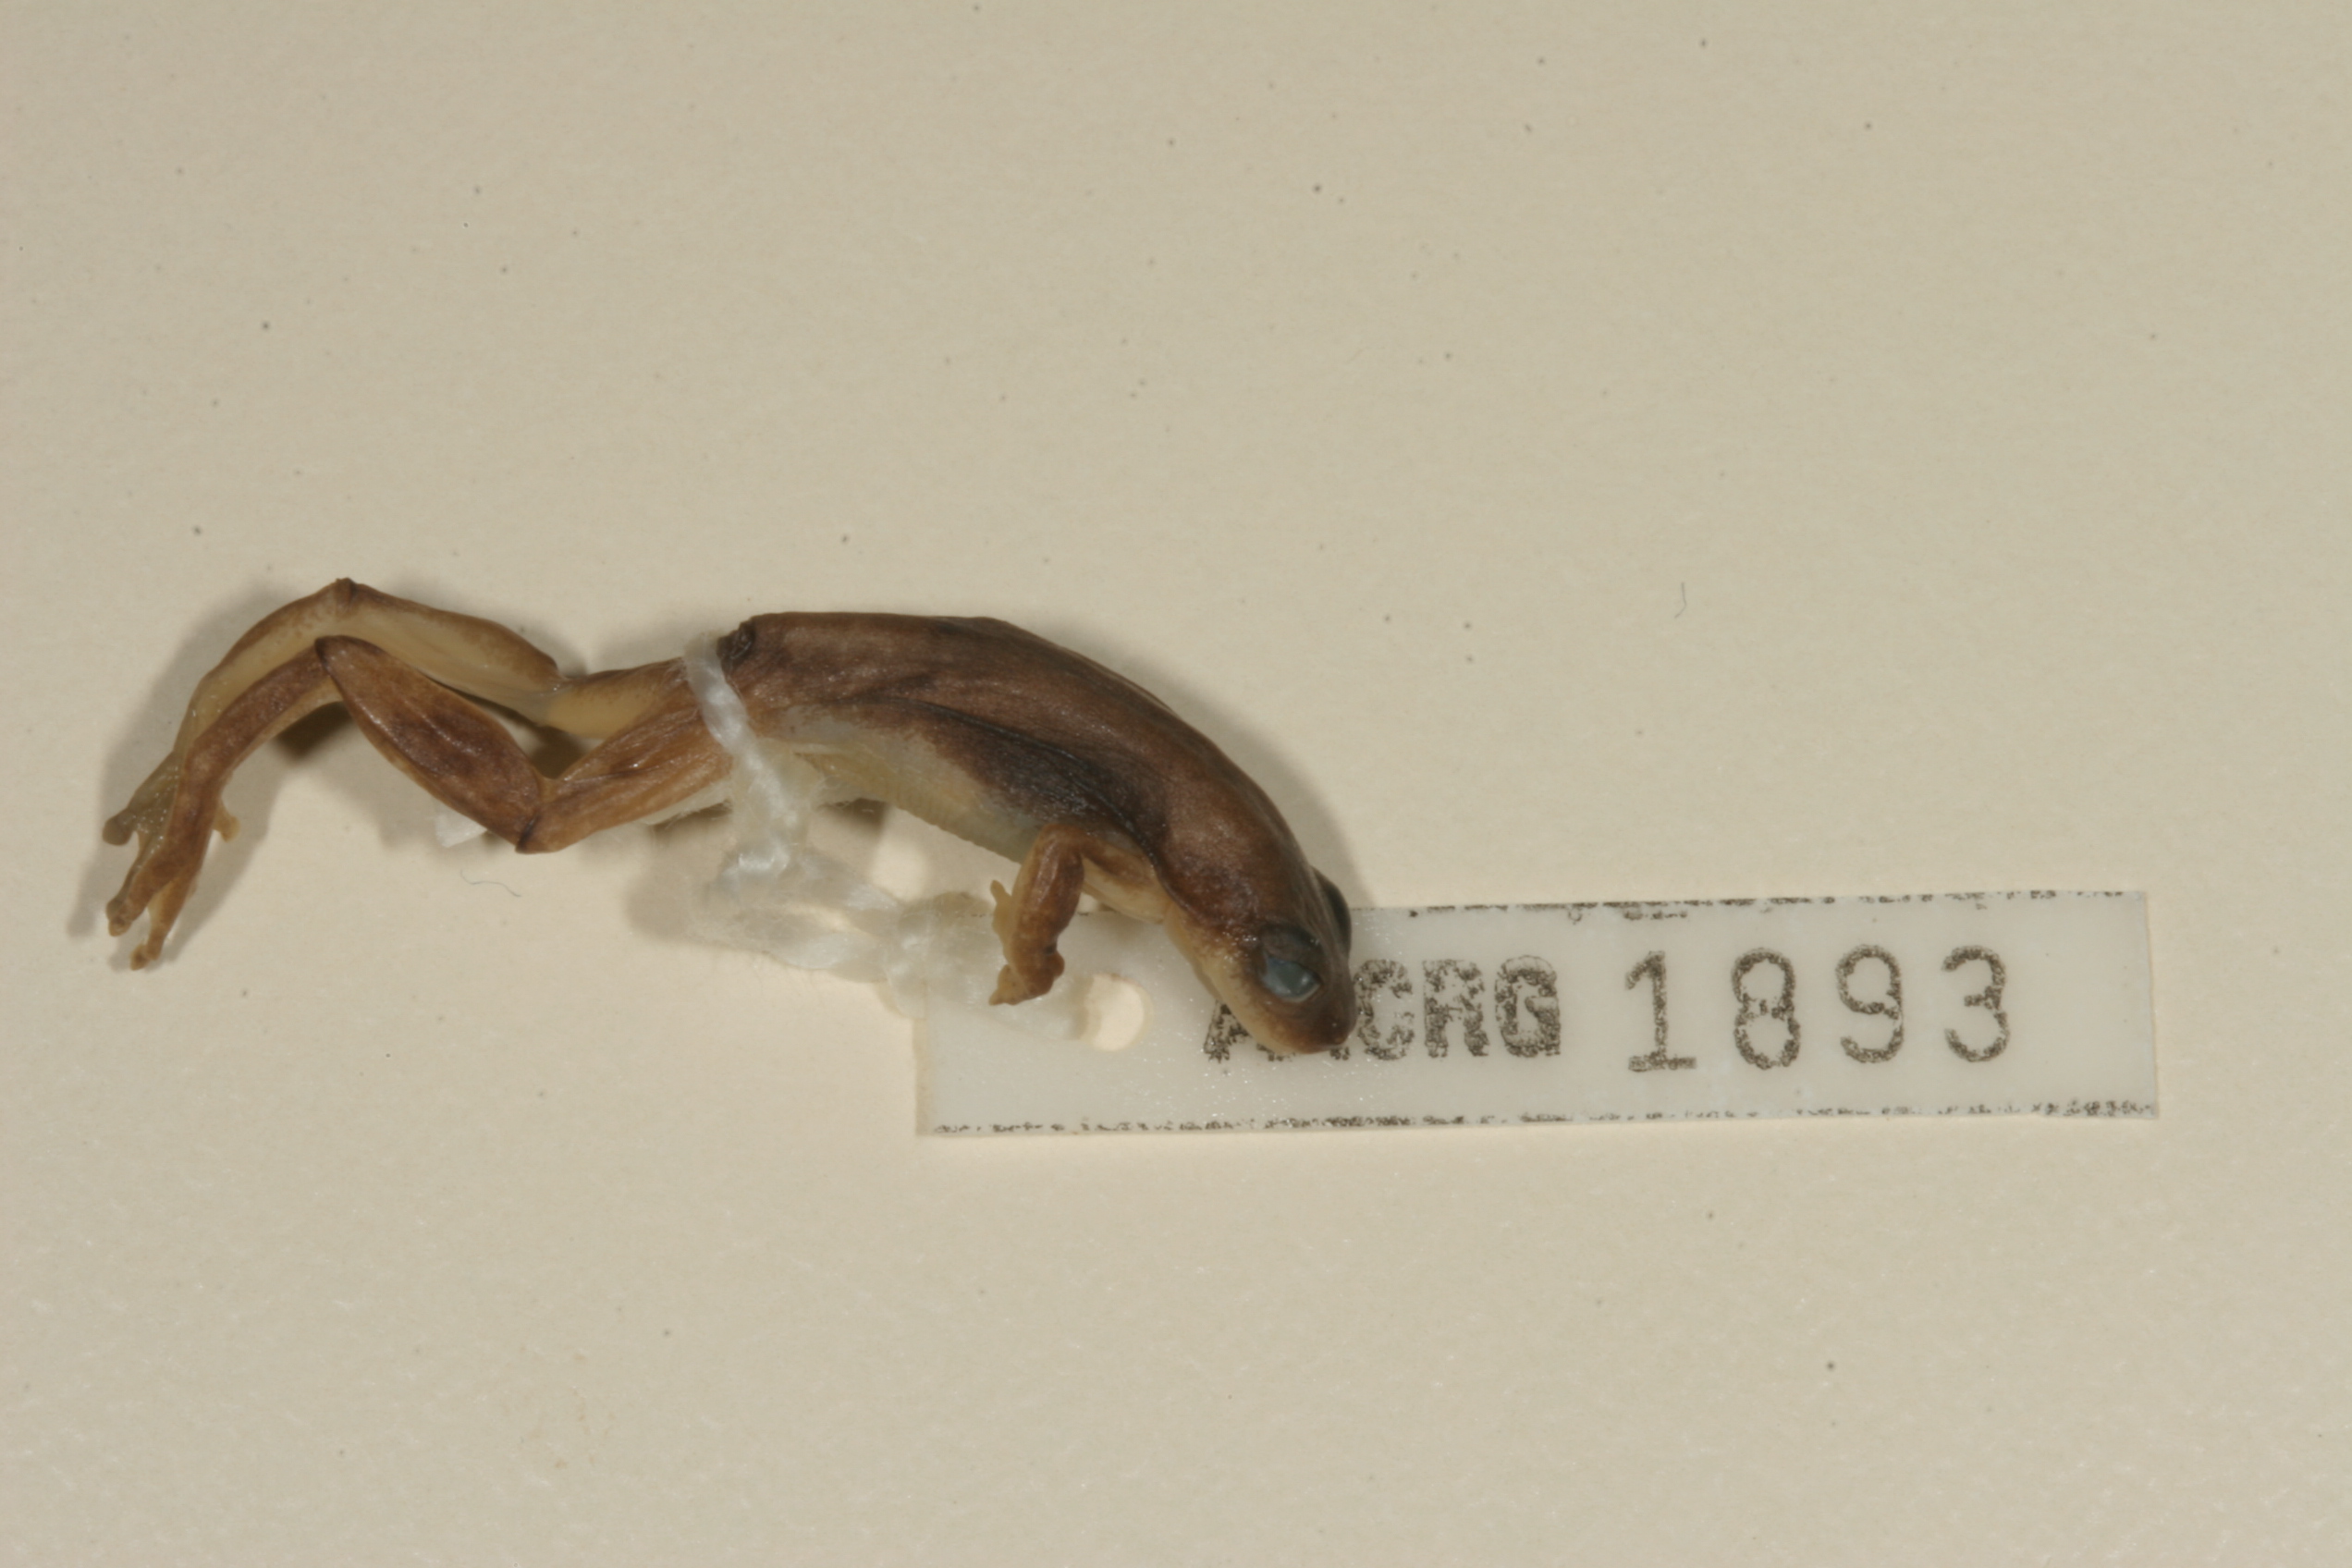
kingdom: Animalia
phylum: Chordata
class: Amphibia
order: Anura
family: Hyperoliidae
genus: Hyperolius
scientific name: Hyperolius marmoratus
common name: Painted reed frog
